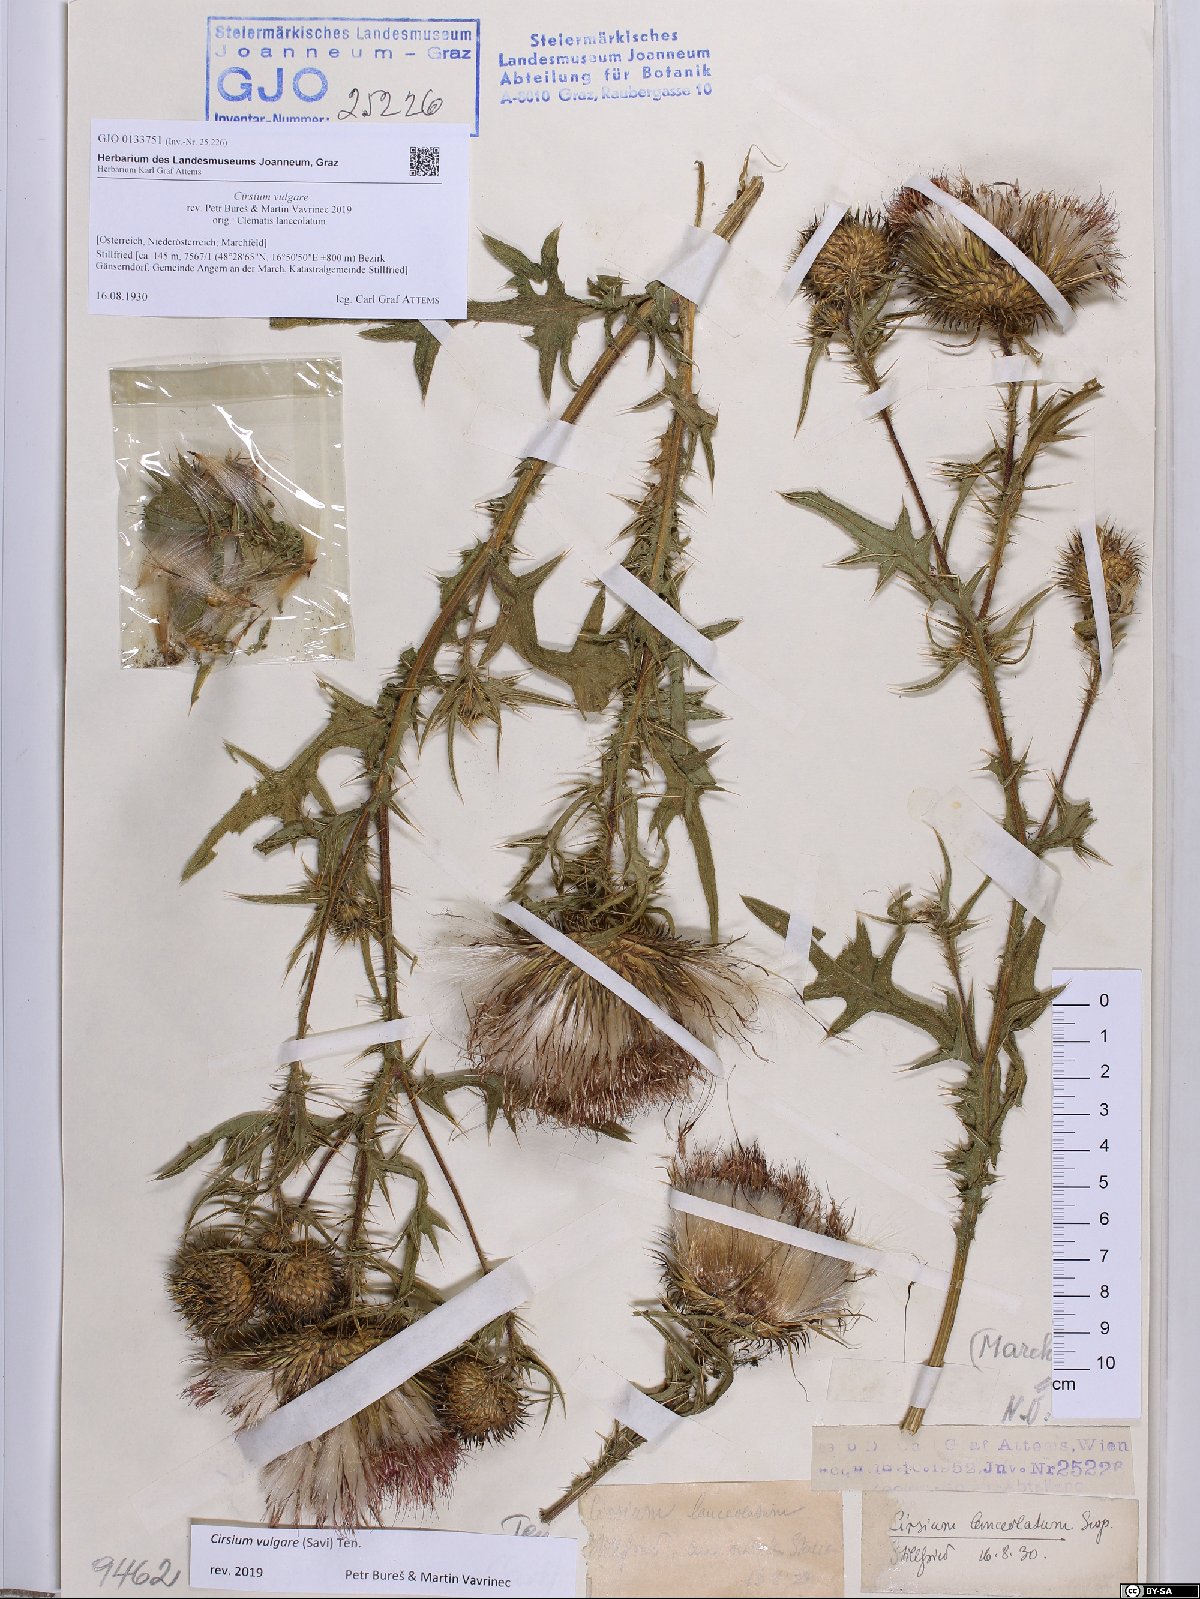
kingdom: Plantae
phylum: Tracheophyta
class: Magnoliopsida
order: Asterales
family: Asteraceae
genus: Cirsium
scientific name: Cirsium vulgare
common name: Bull thistle
